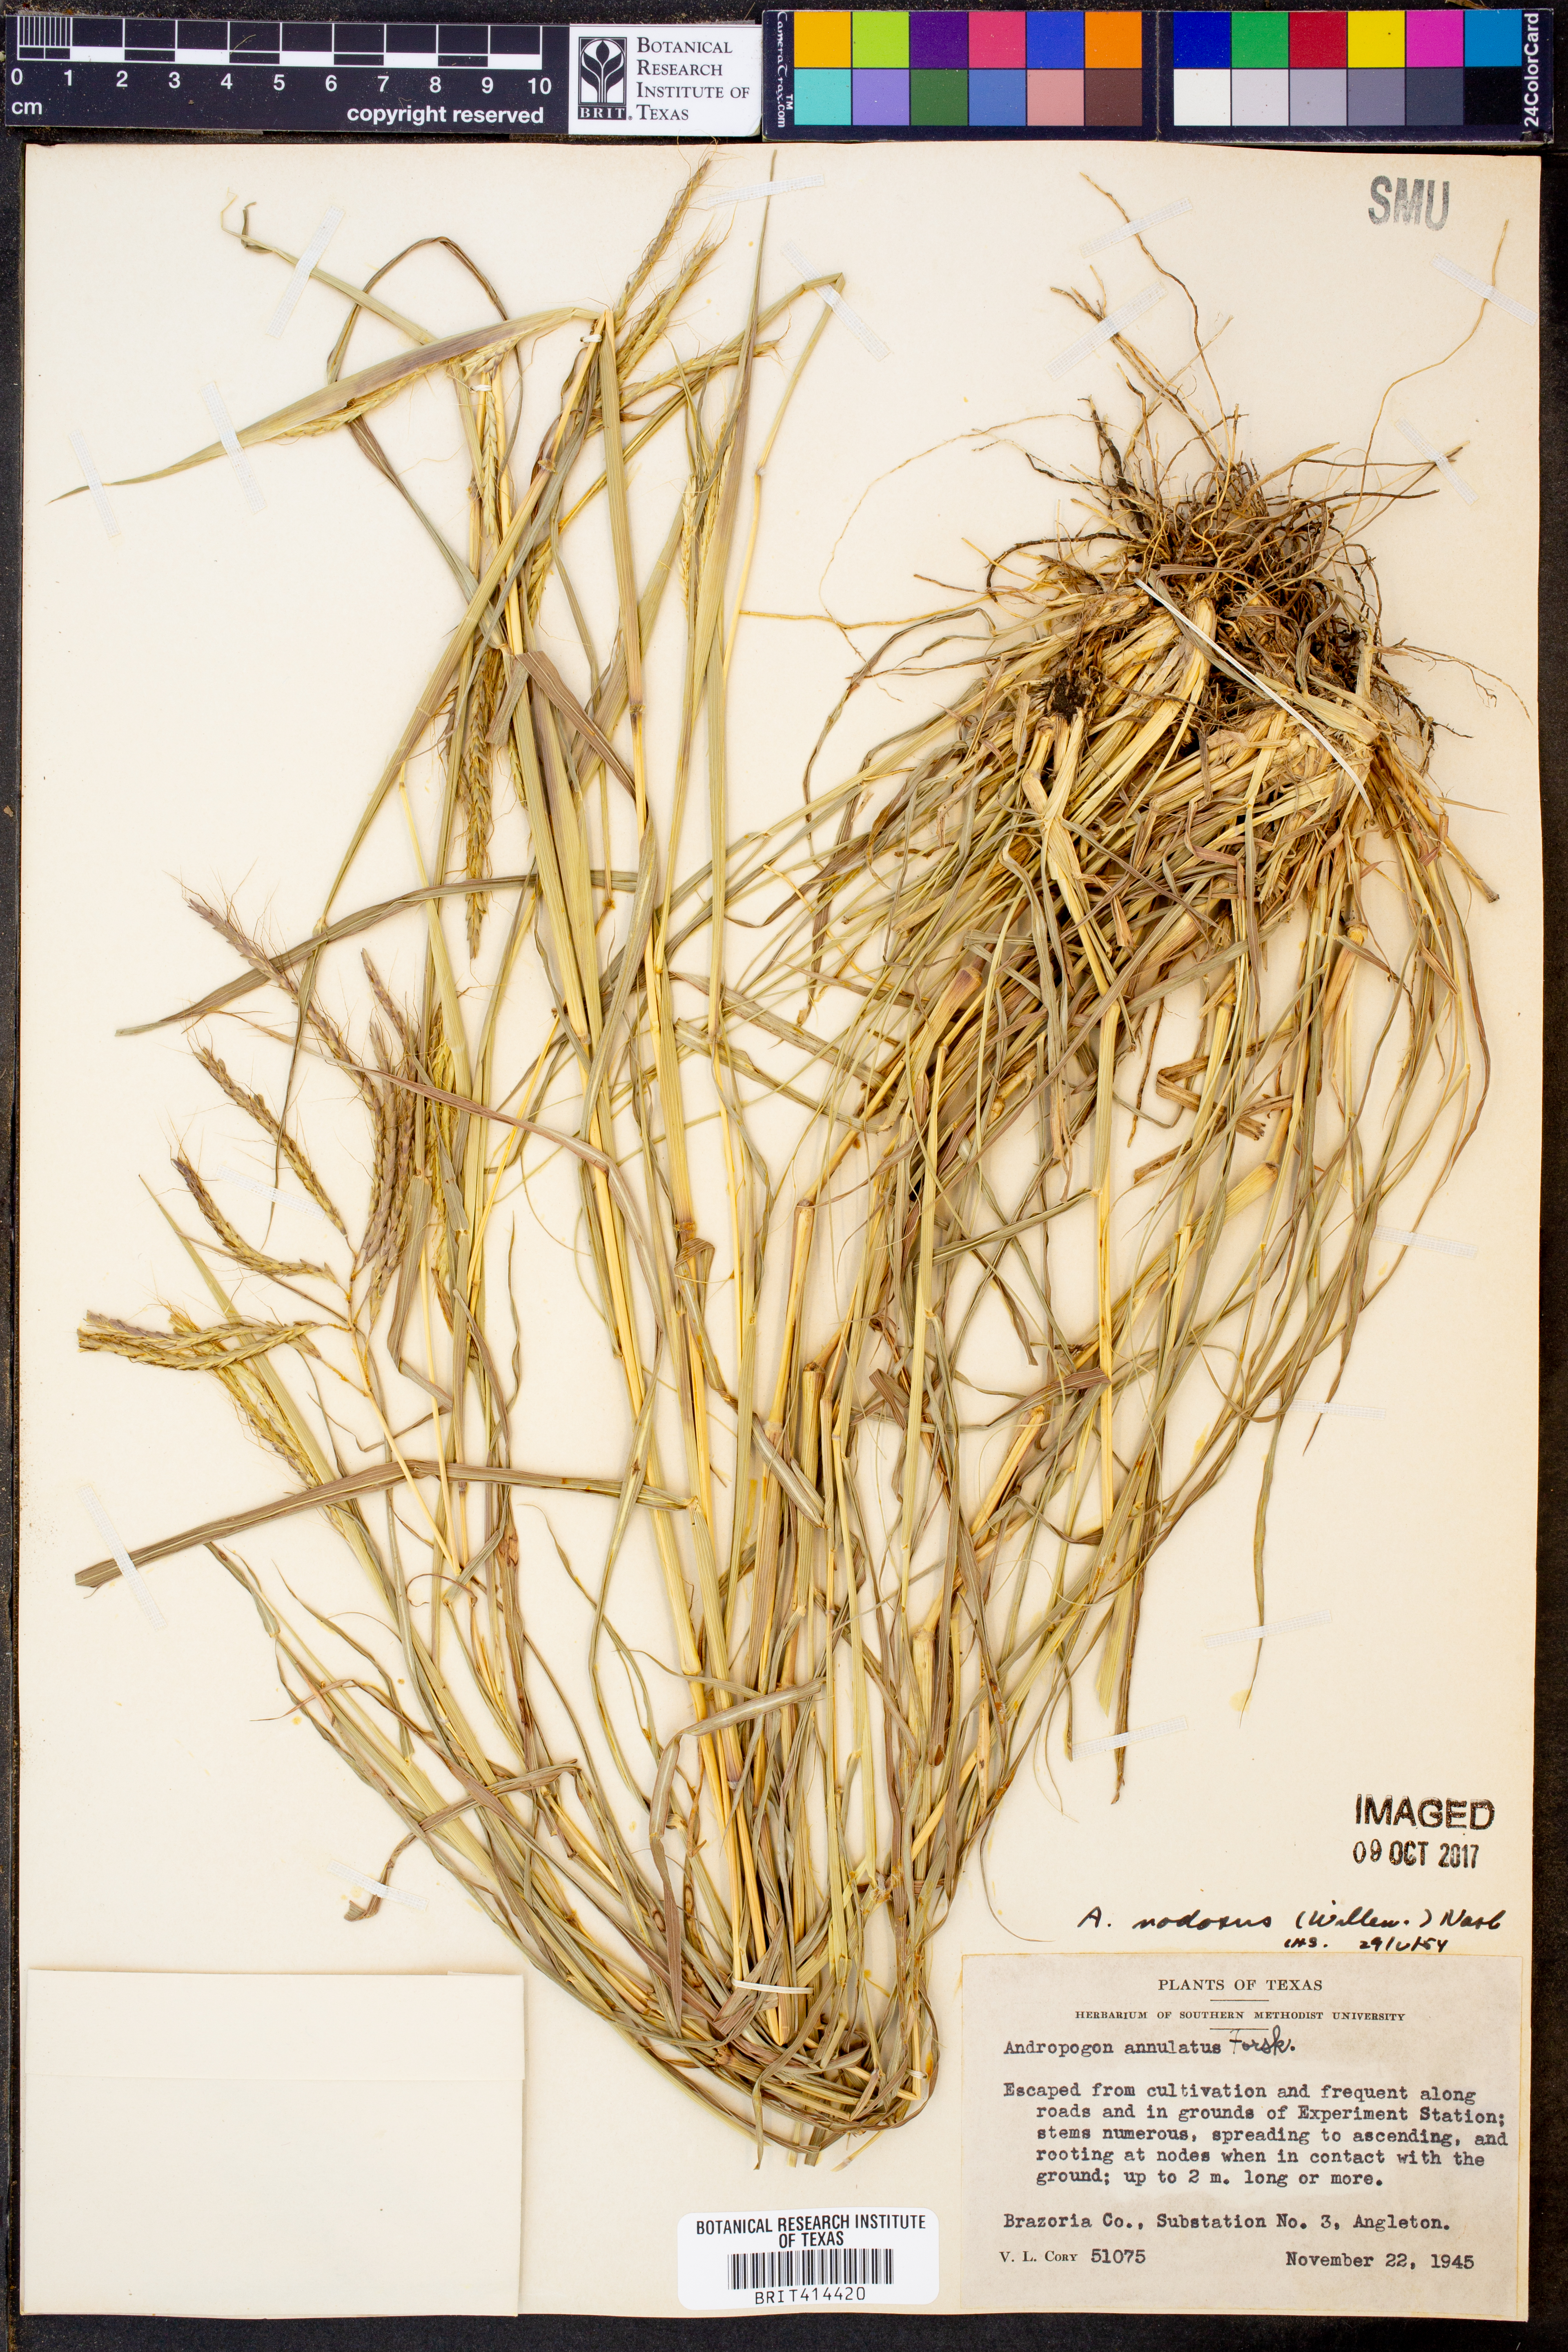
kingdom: Plantae
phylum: Tracheophyta
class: Liliopsida
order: Poales
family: Poaceae
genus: Dichanthium
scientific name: Dichanthium annulatum
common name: Kleberg's bluestem
